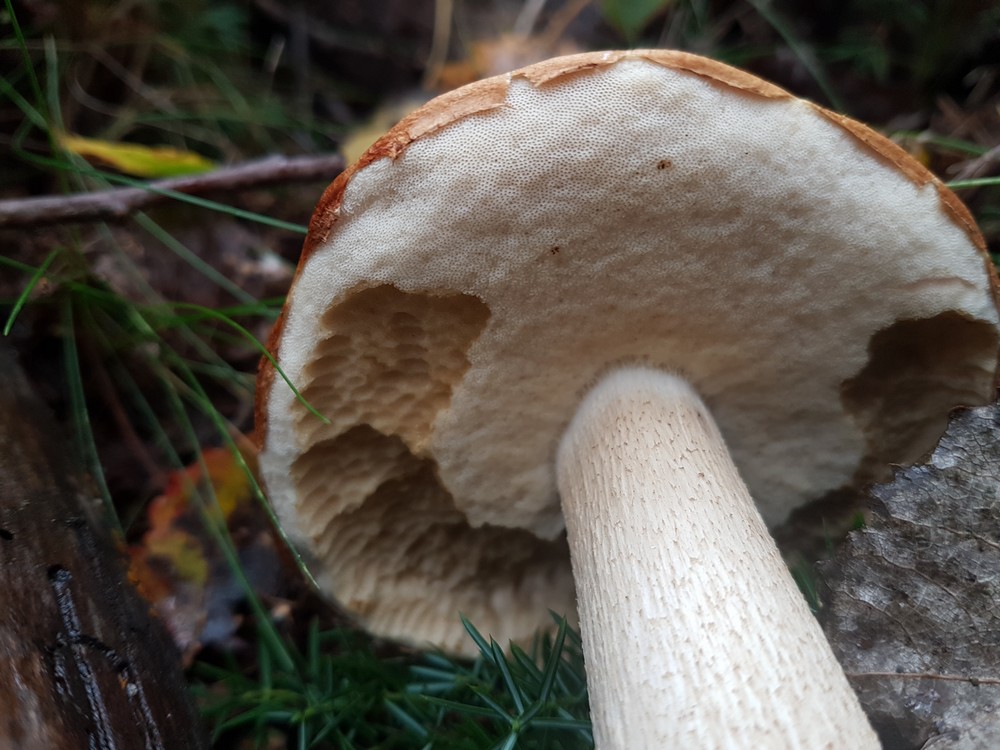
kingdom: Fungi
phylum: Basidiomycota
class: Agaricomycetes
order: Boletales
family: Boletaceae
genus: Leccinum
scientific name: Leccinum albostipitatum
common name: aspe-skælrørhat
